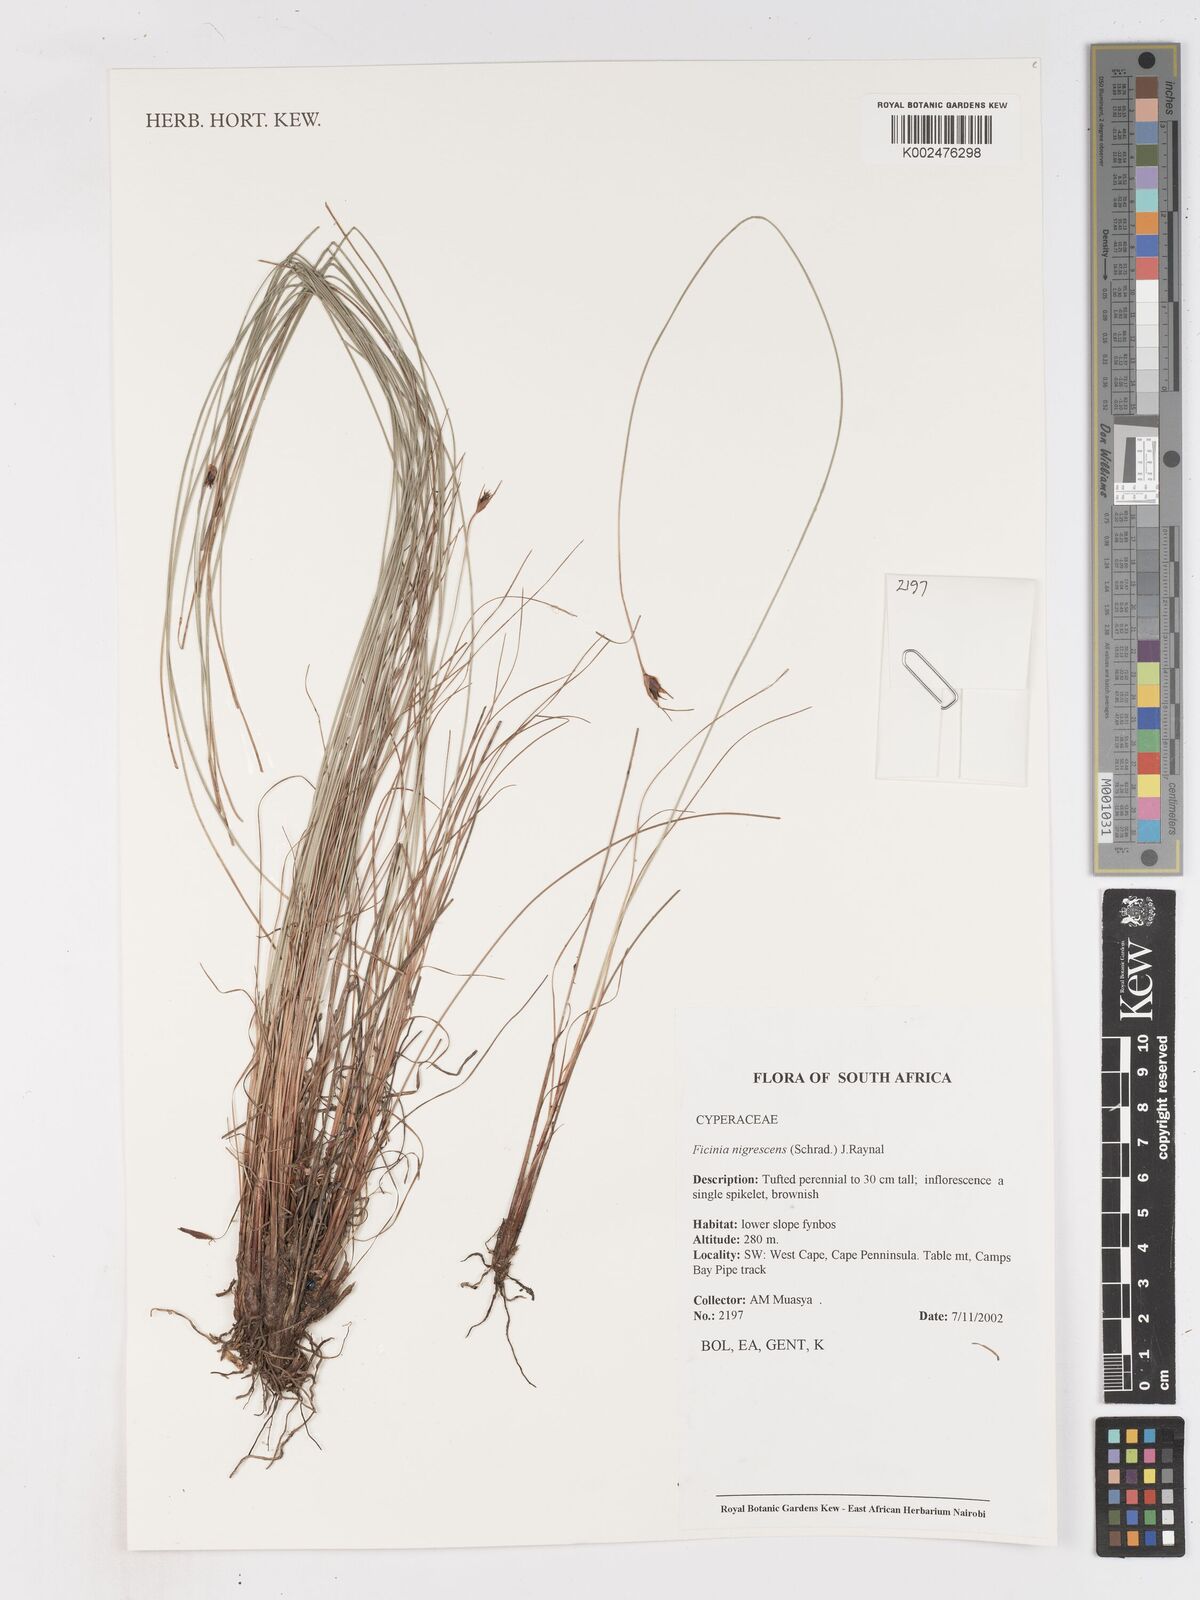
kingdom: Plantae
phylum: Tracheophyta
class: Liliopsida
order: Poales
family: Cyperaceae
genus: Ficinia
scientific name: Ficinia nigrescens
